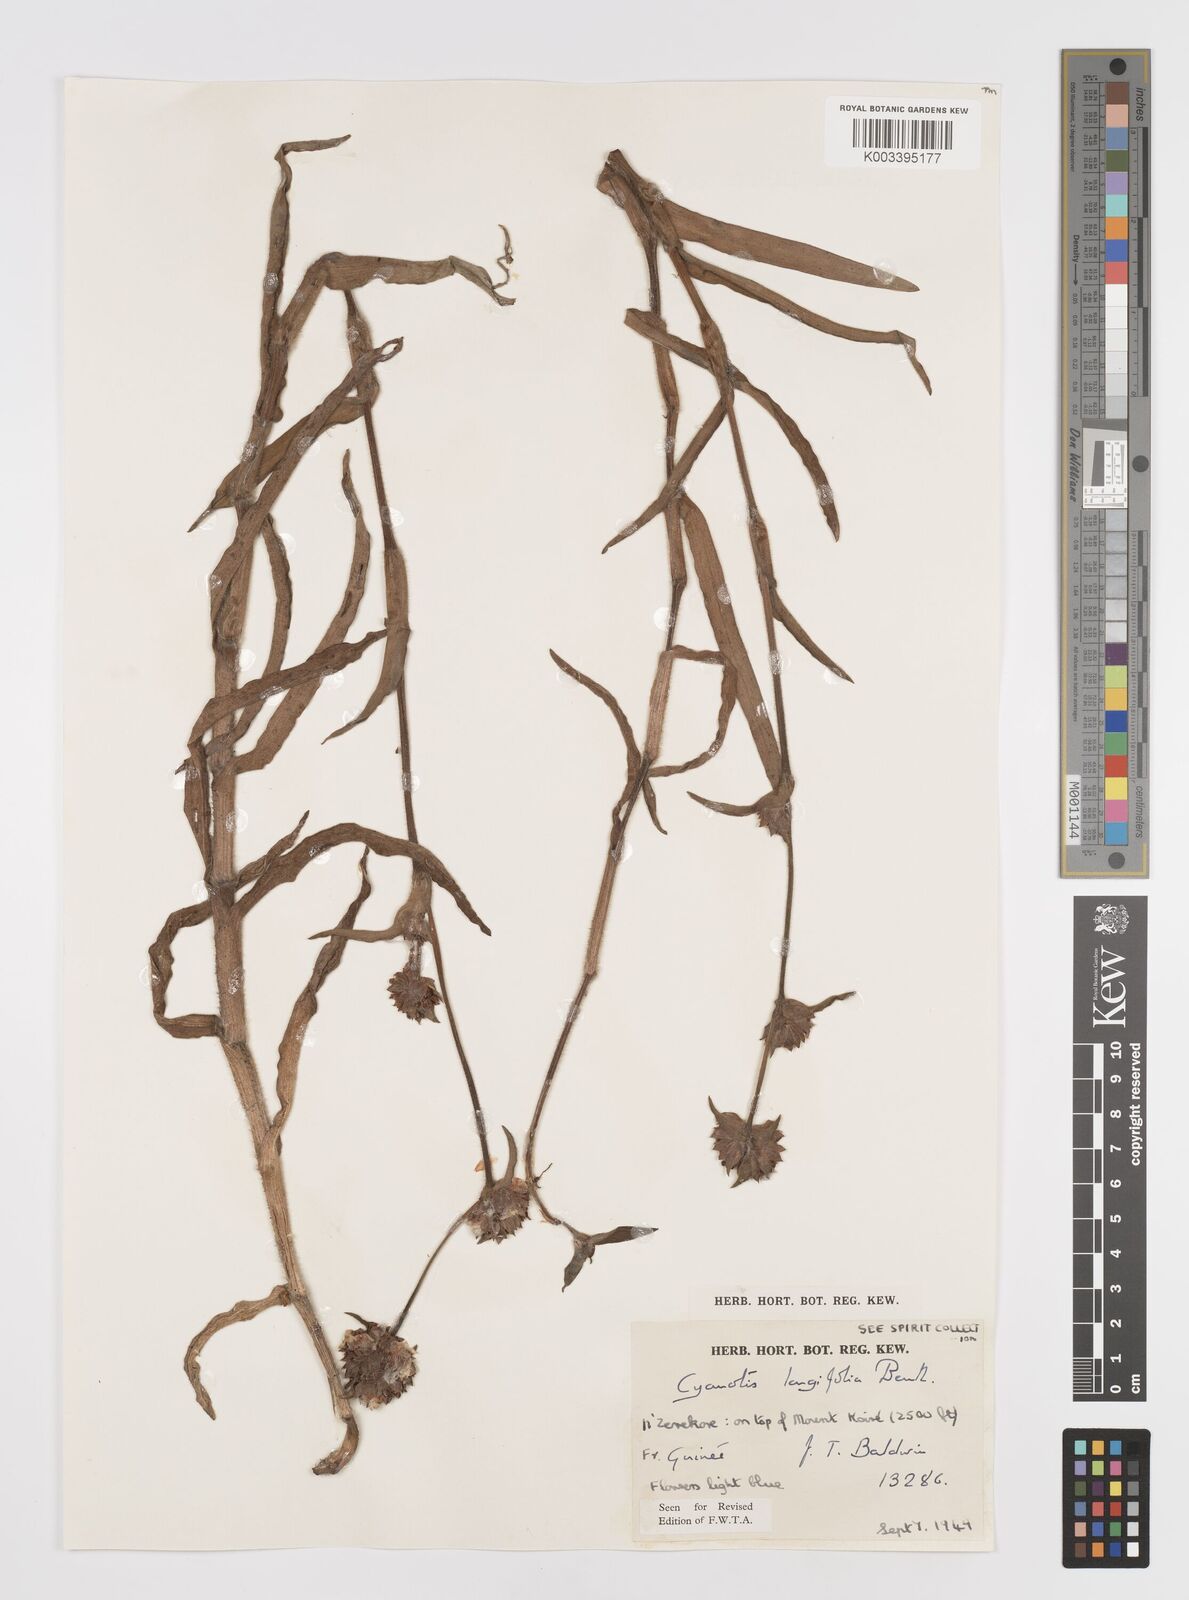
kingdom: Plantae
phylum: Tracheophyta
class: Liliopsida
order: Commelinales
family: Commelinaceae
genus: Cyanotis
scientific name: Cyanotis
